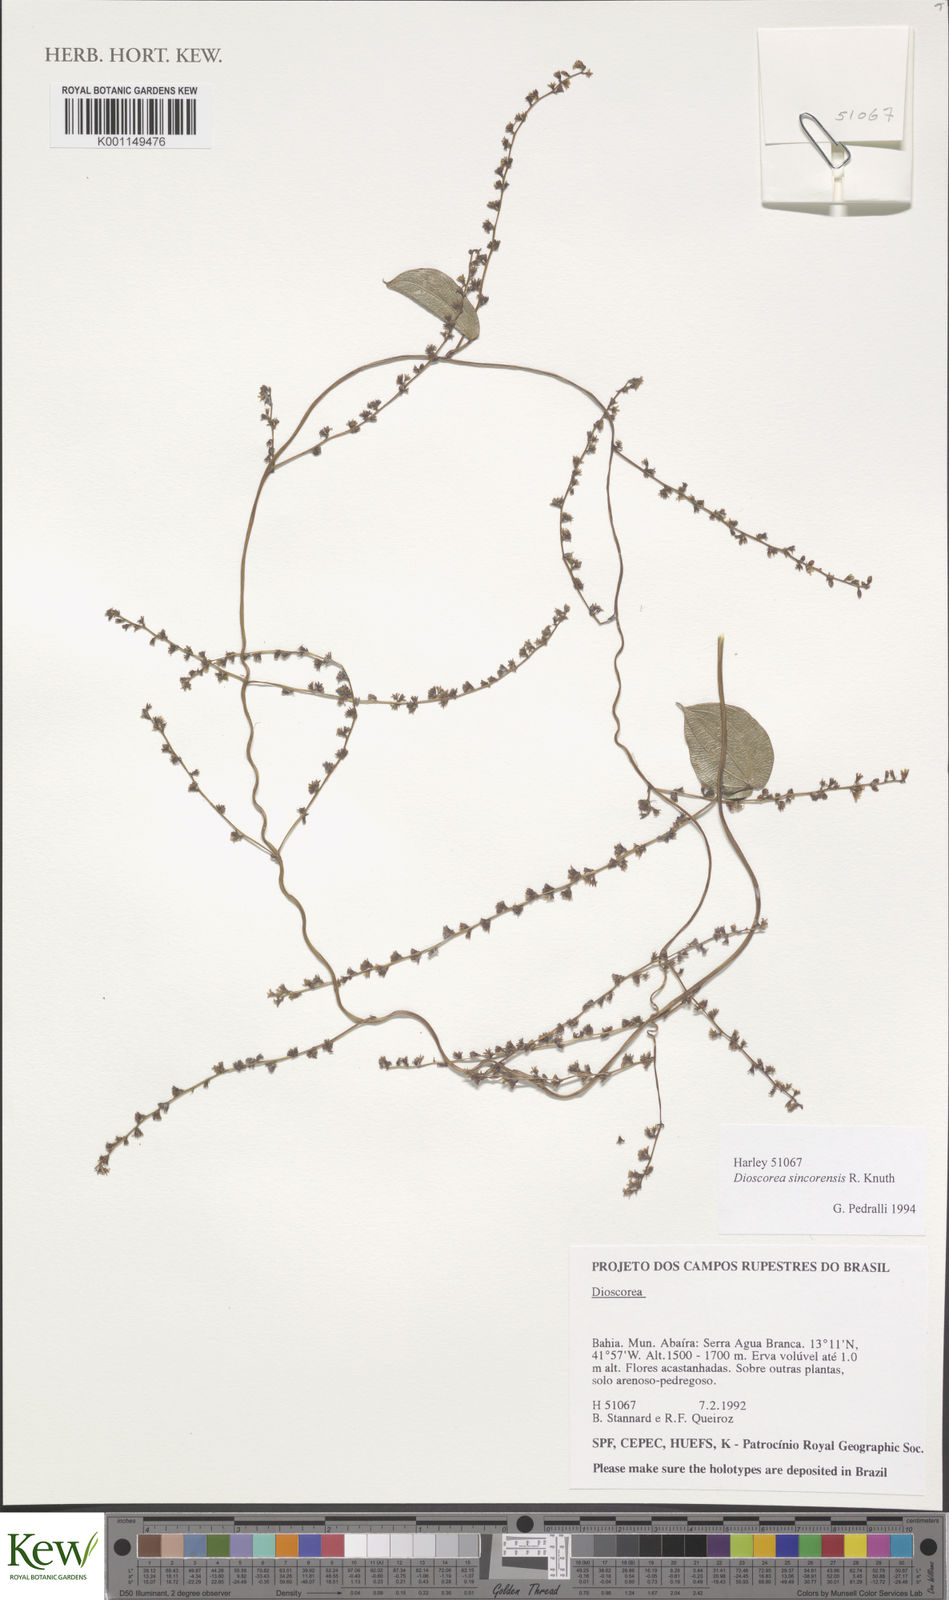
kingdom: Plantae
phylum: Tracheophyta
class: Liliopsida
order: Dioscoreales
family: Dioscoreaceae
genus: Dioscorea
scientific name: Dioscorea sincorensis
